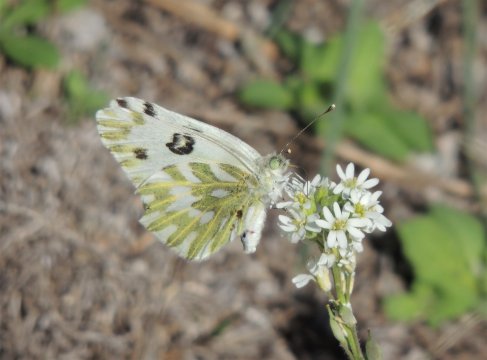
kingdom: Animalia
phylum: Arthropoda
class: Insecta
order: Lepidoptera
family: Pieridae
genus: Pontia
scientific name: Pontia beckerii
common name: Becker's White
